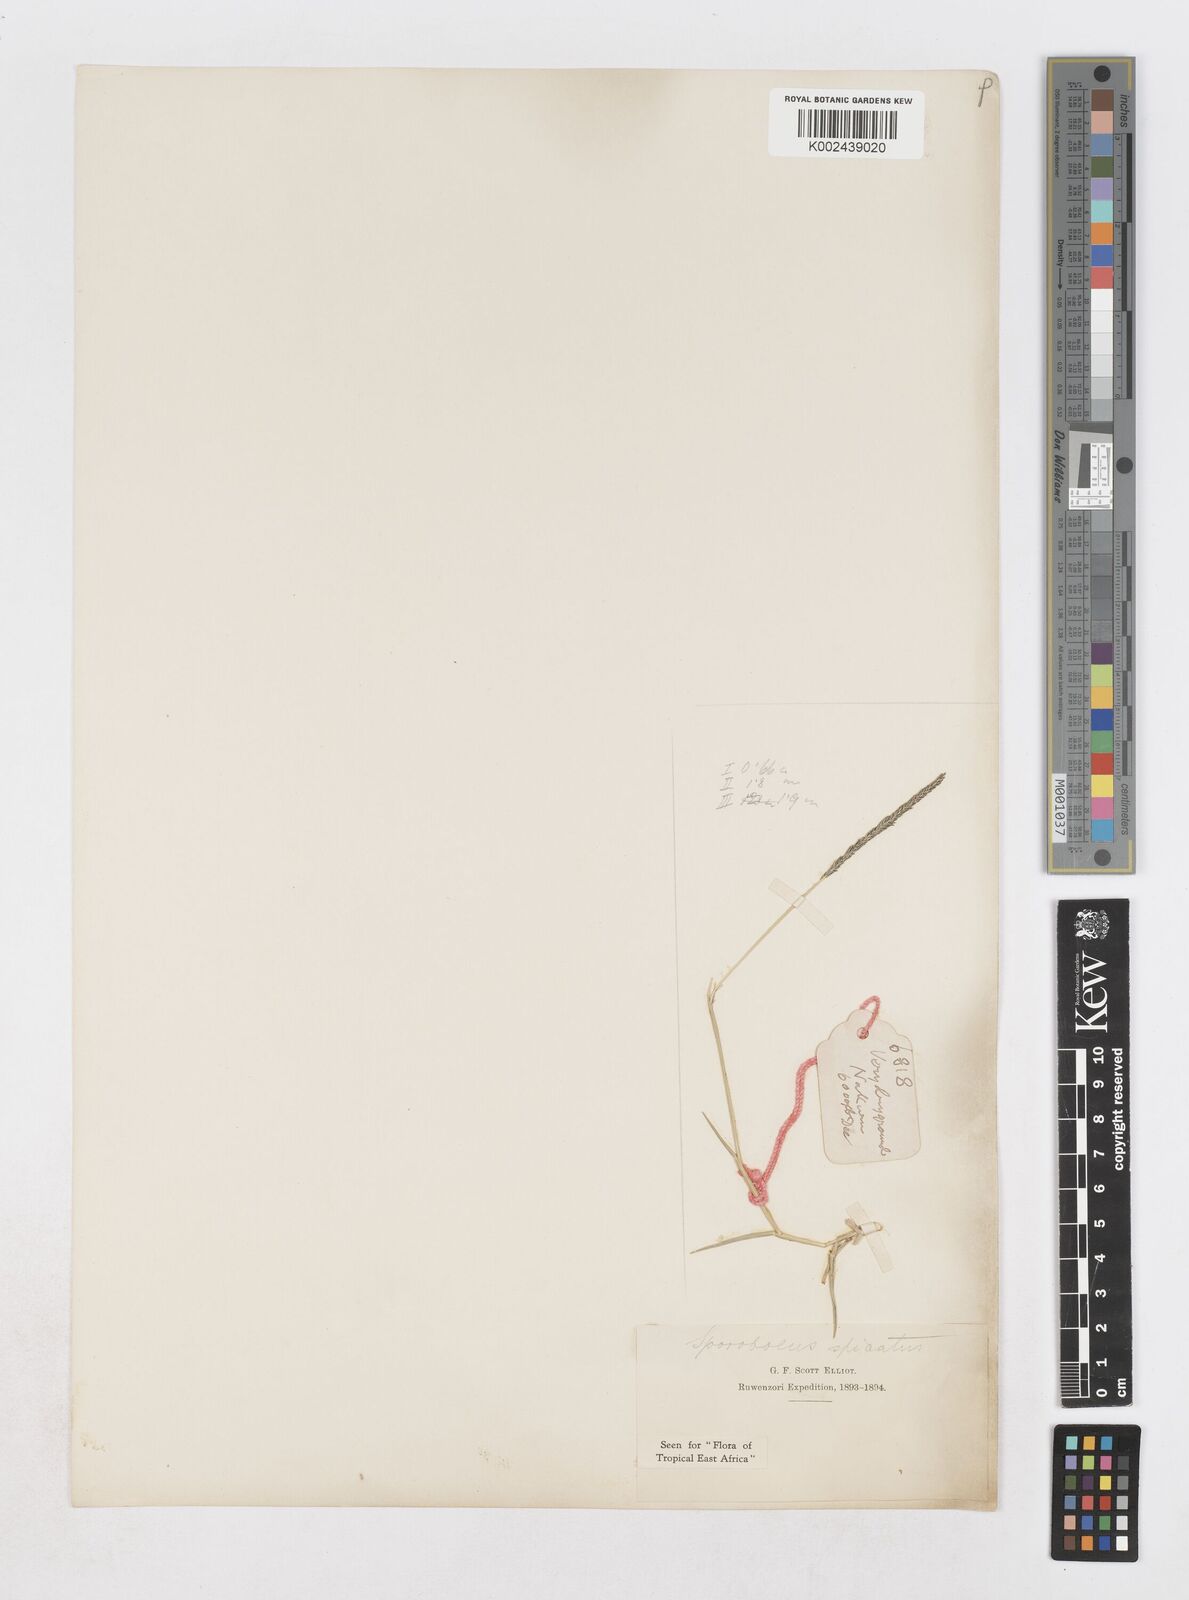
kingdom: Plantae
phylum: Tracheophyta
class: Liliopsida
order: Poales
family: Poaceae
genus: Sporobolus
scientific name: Sporobolus spicatus
